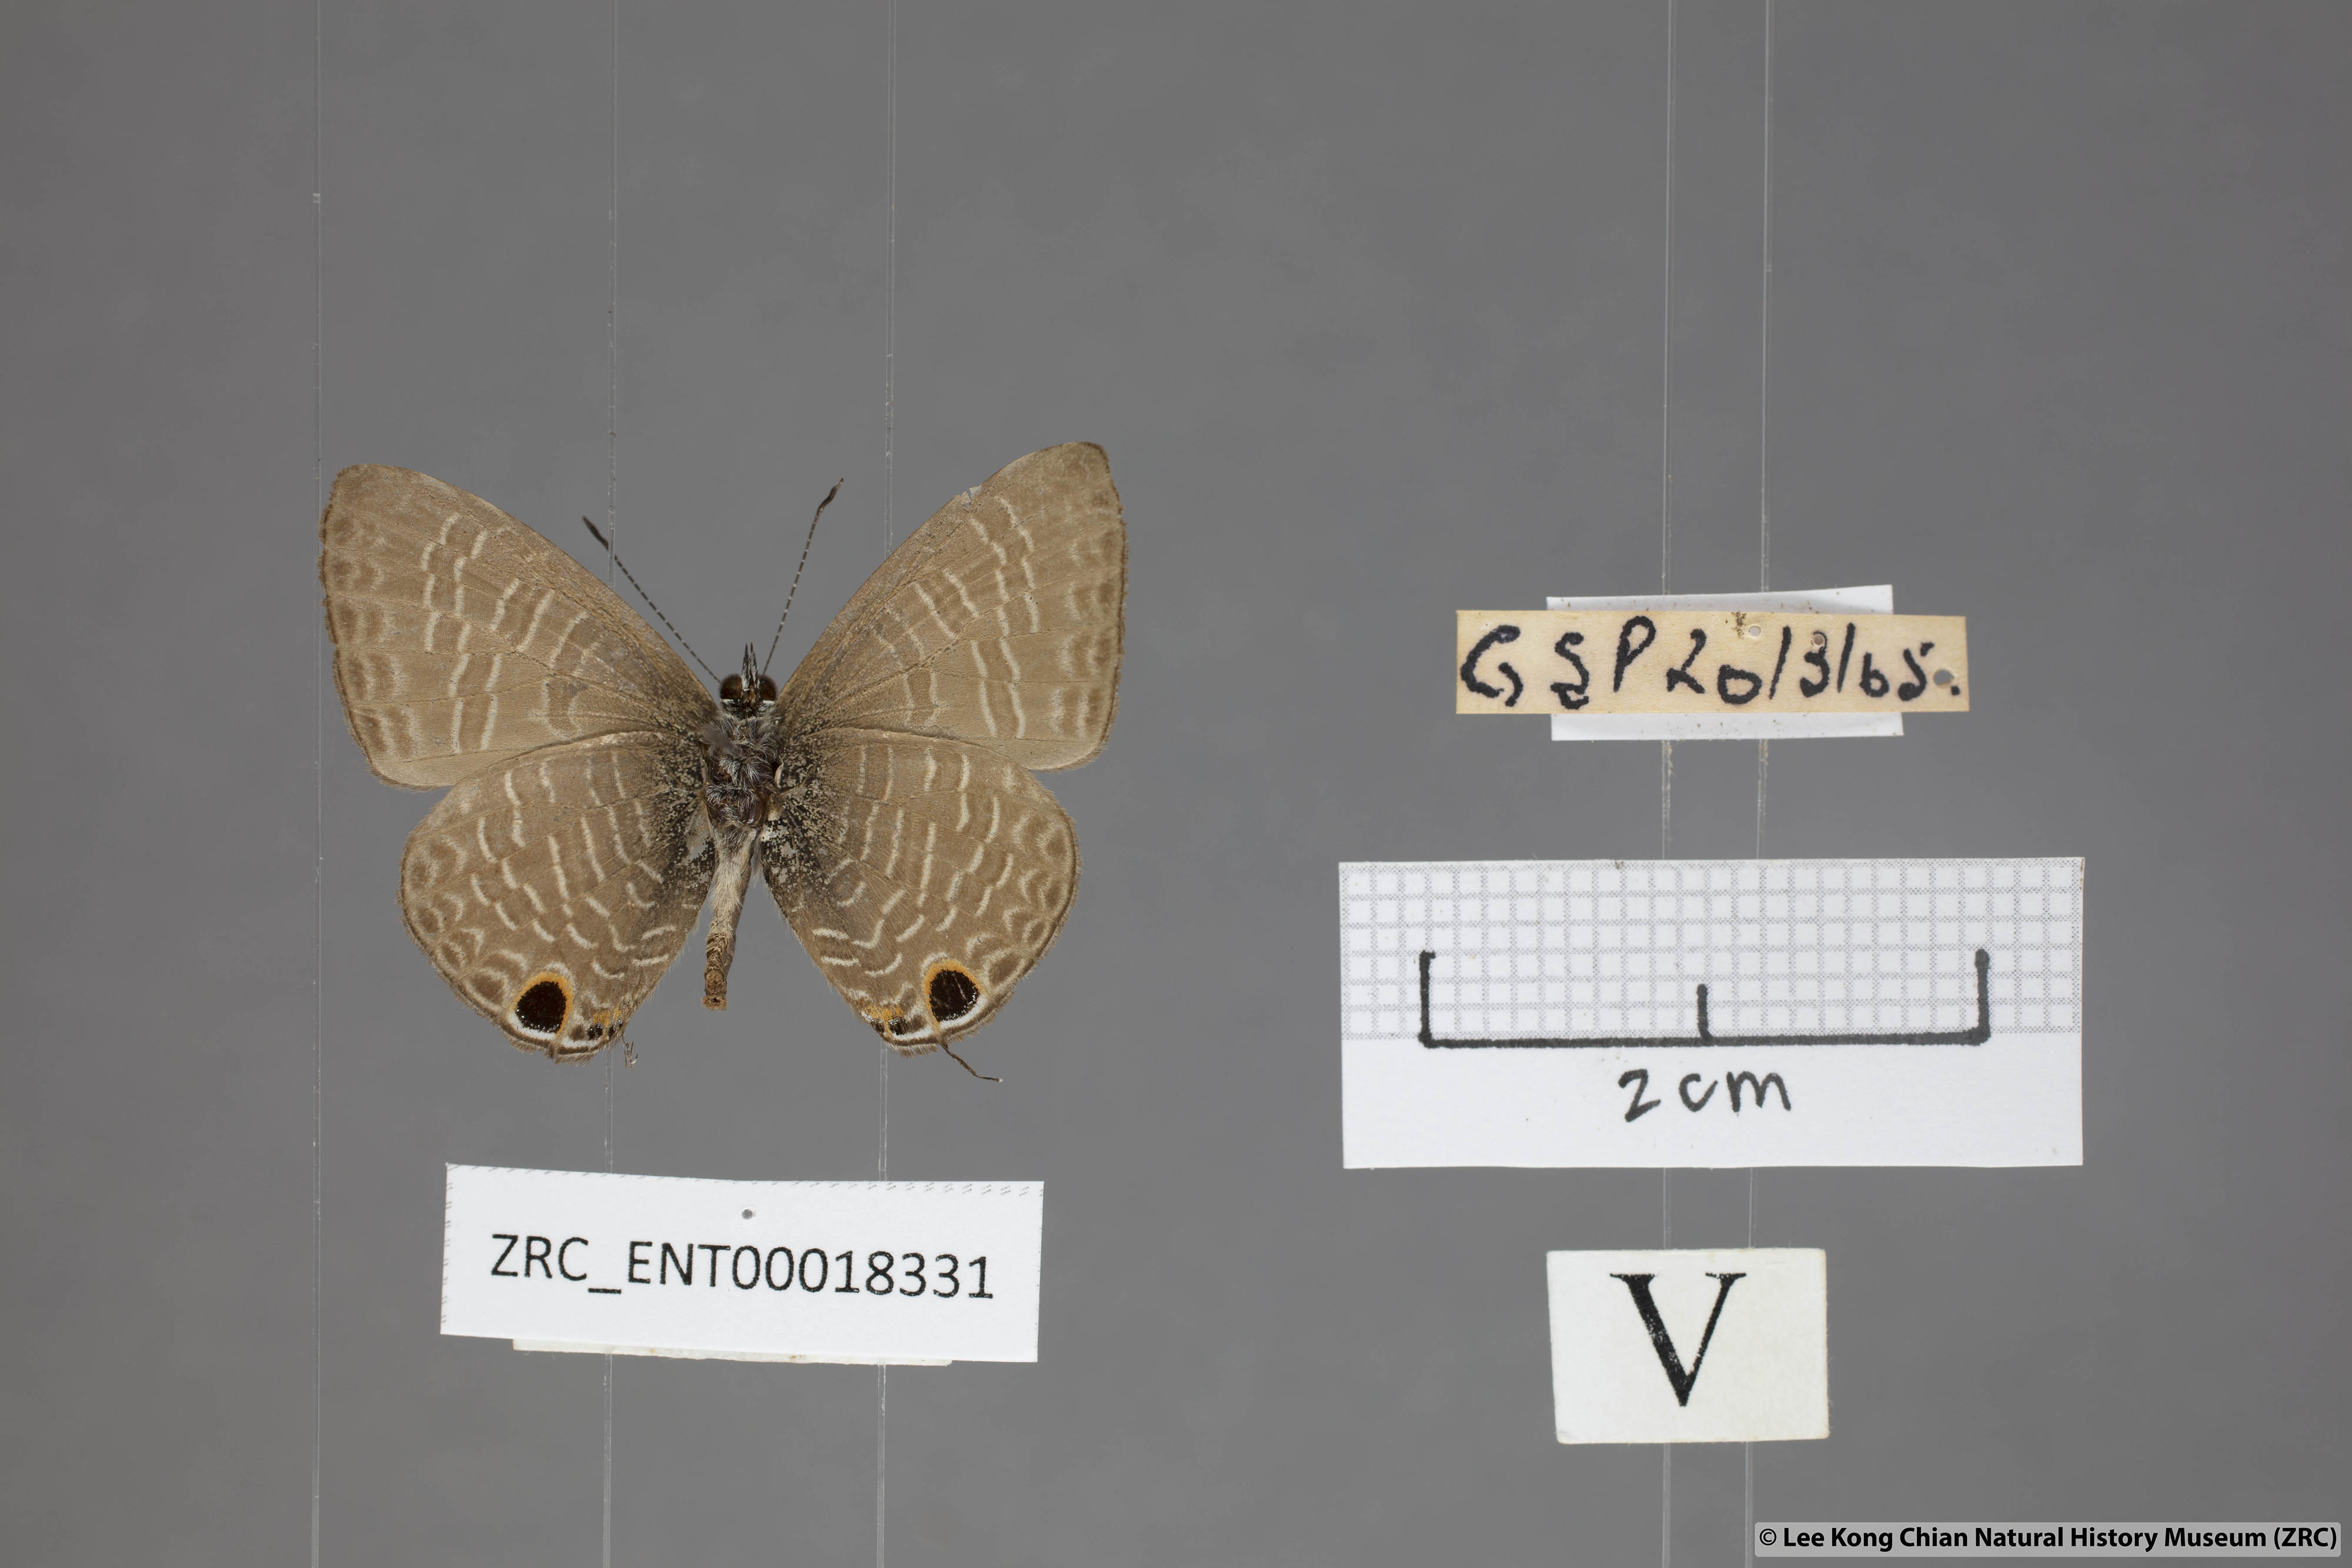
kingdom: Animalia
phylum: Arthropoda
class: Insecta
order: Lepidoptera
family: Lycaenidae
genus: Nacaduba
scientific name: Nacaduba beroe
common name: Opaque sixline blue
